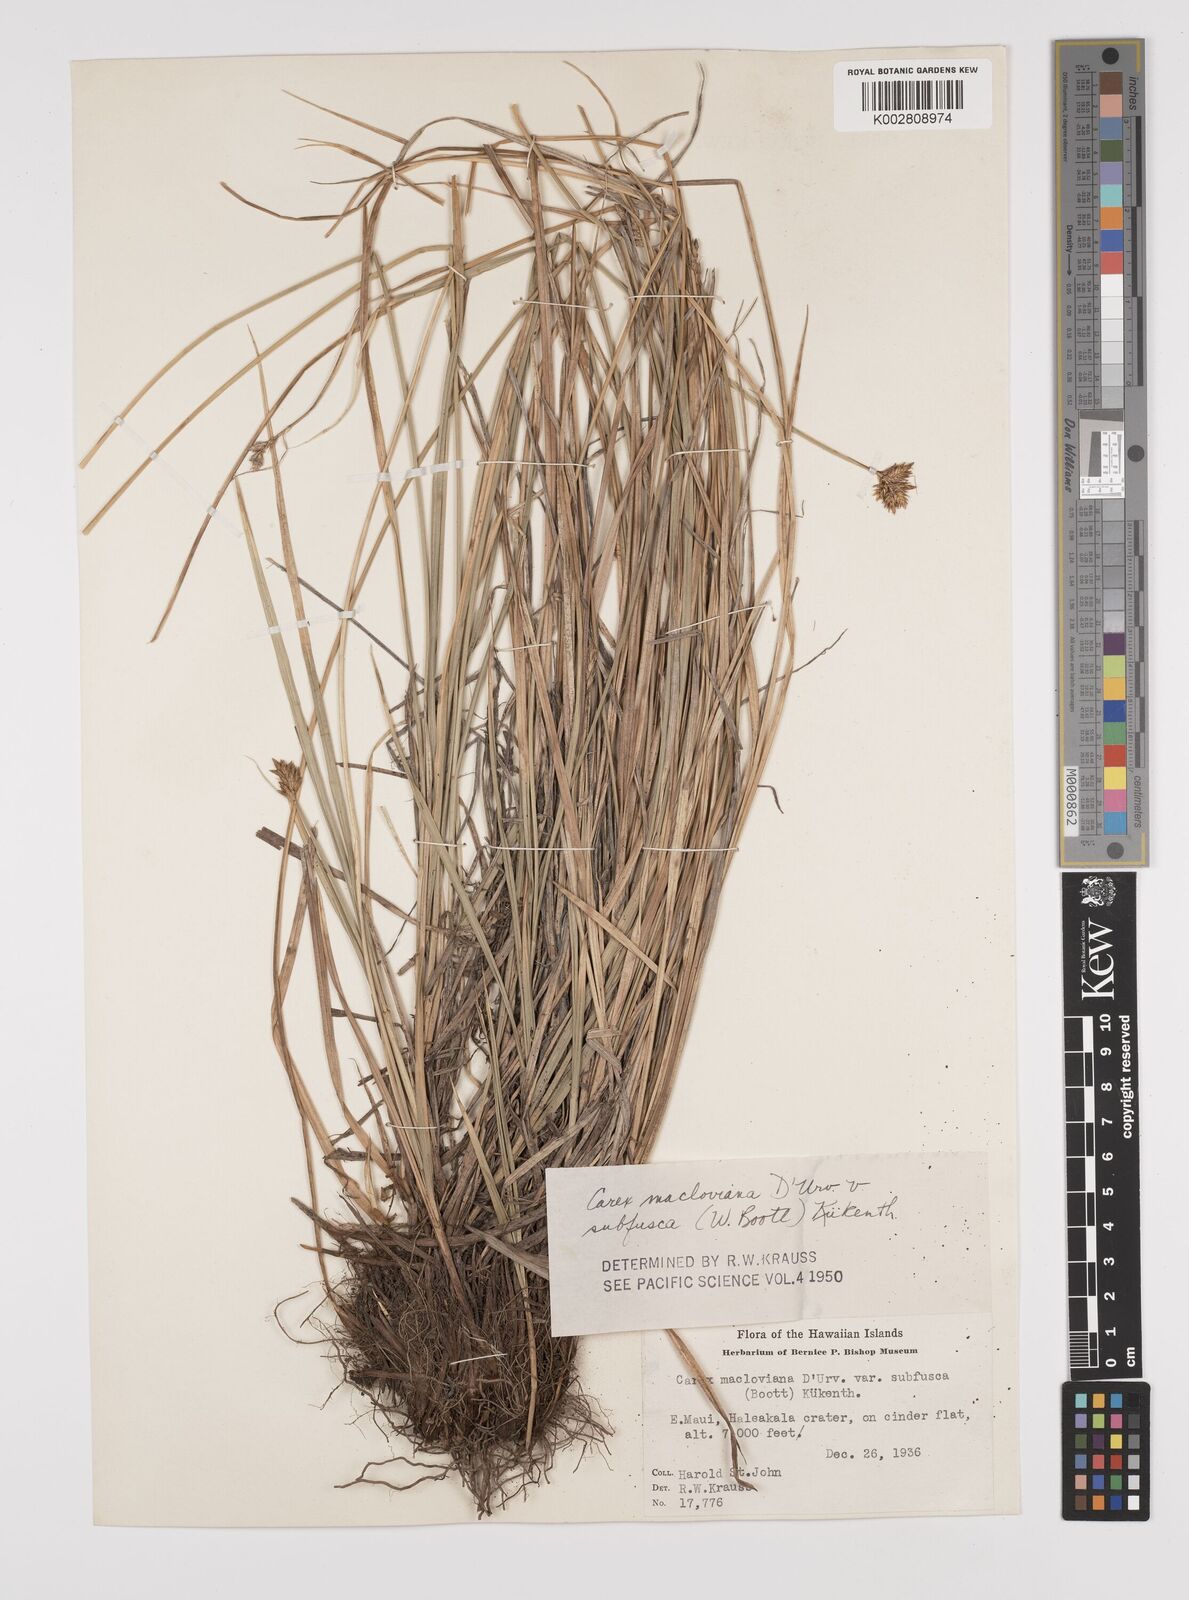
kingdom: Plantae
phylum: Tracheophyta
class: Liliopsida
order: Poales
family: Cyperaceae
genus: Carex
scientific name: Carex subfusca
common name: Brown sedge
